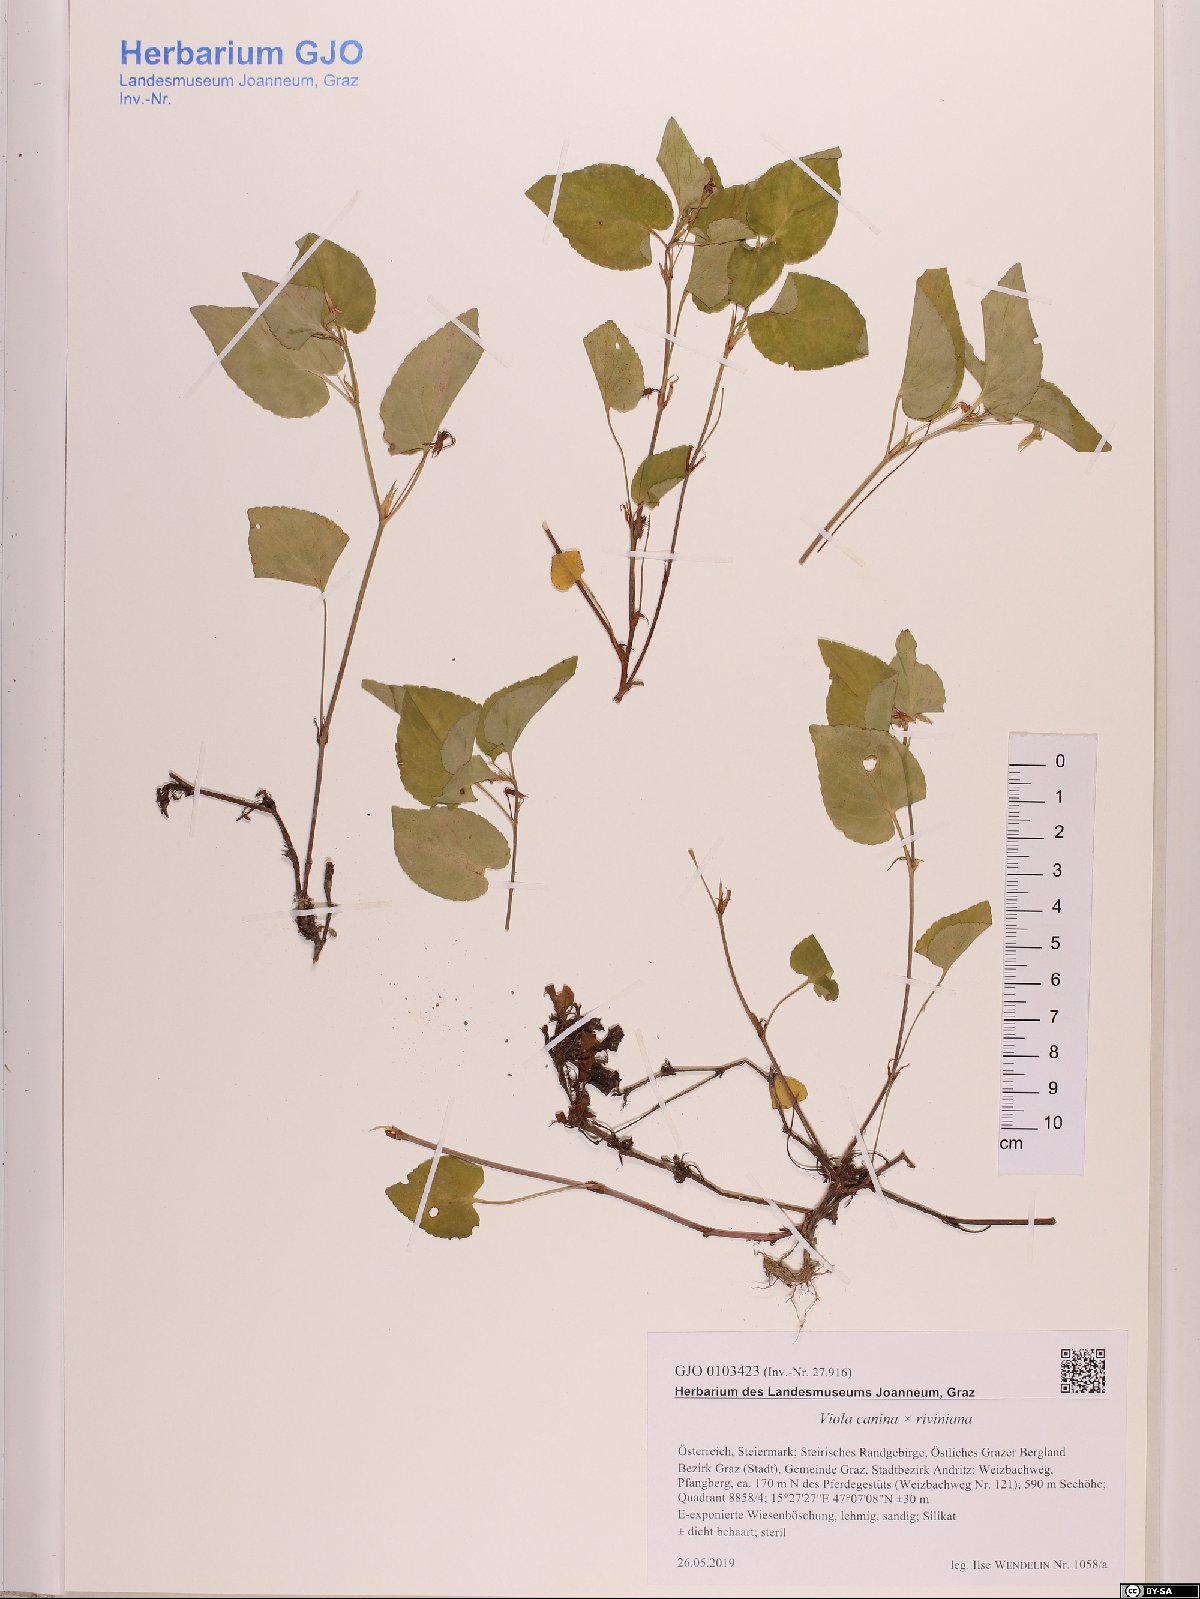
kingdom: Plantae
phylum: Tracheophyta
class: Magnoliopsida
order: Malpighiales
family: Violaceae
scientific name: Violaceae
